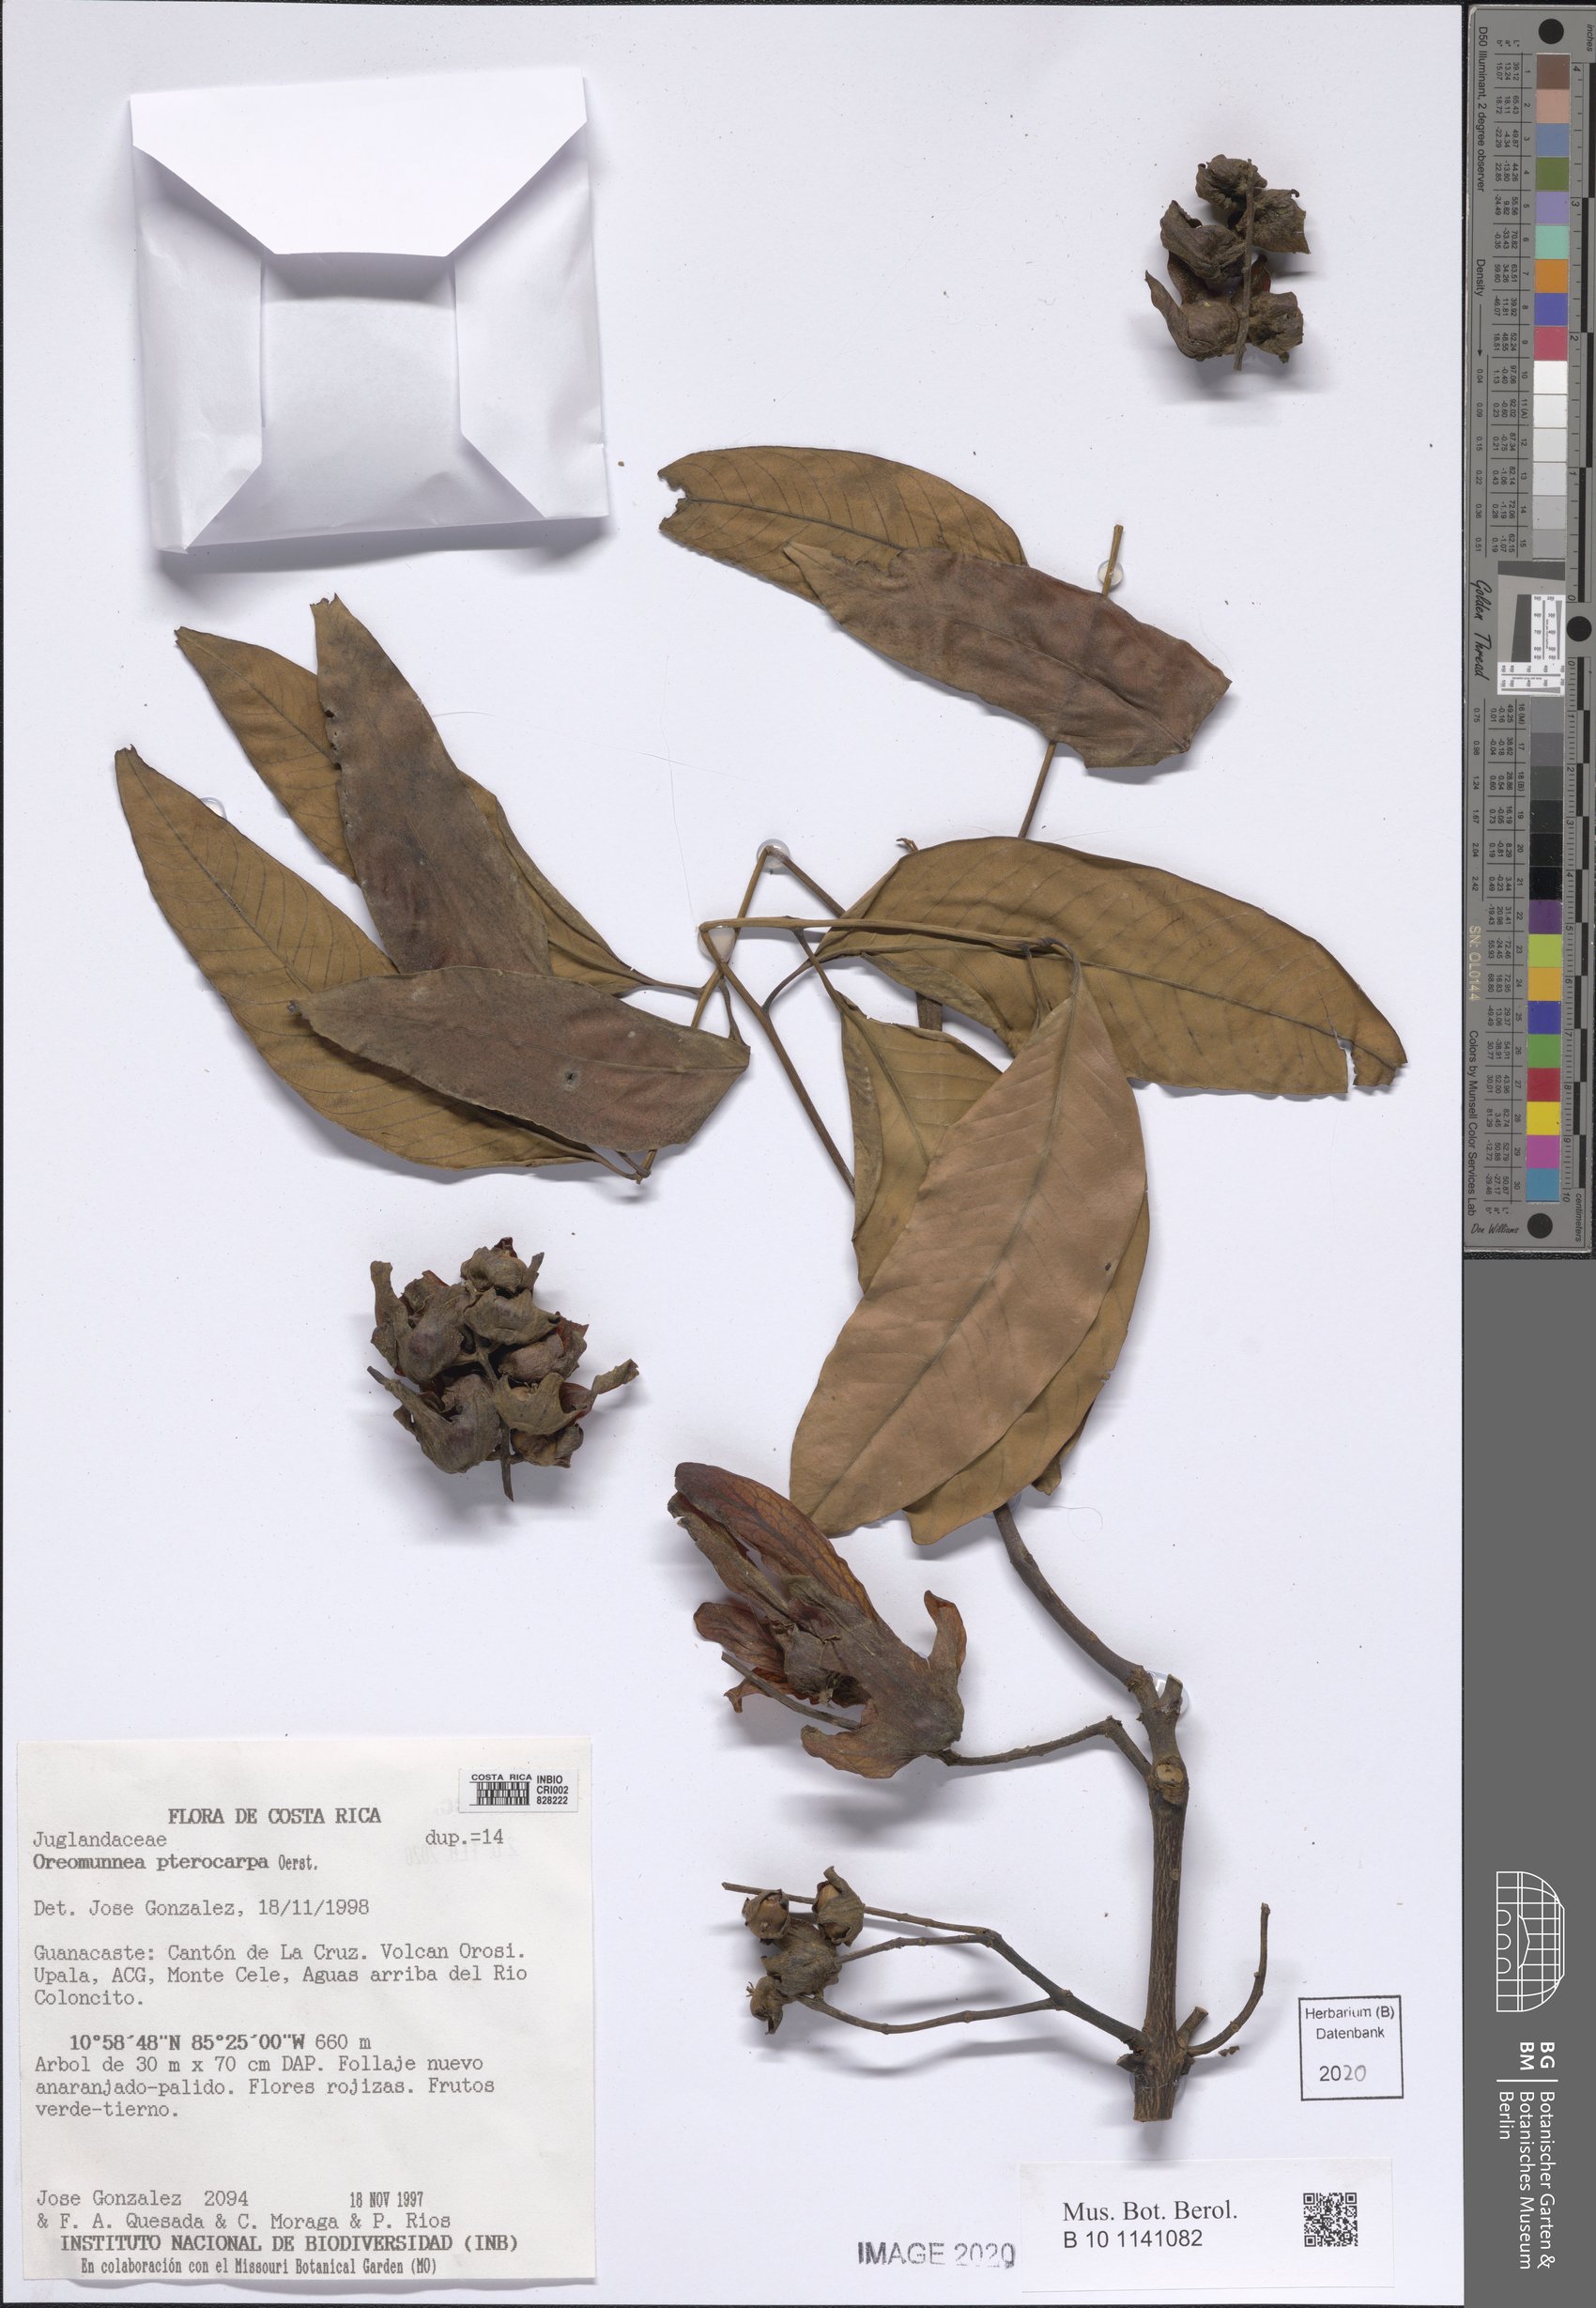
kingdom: Plantae
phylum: Tracheophyta
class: Magnoliopsida
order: Fagales
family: Juglandaceae
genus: Oreomunnea
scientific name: Oreomunnea pterocarpa
